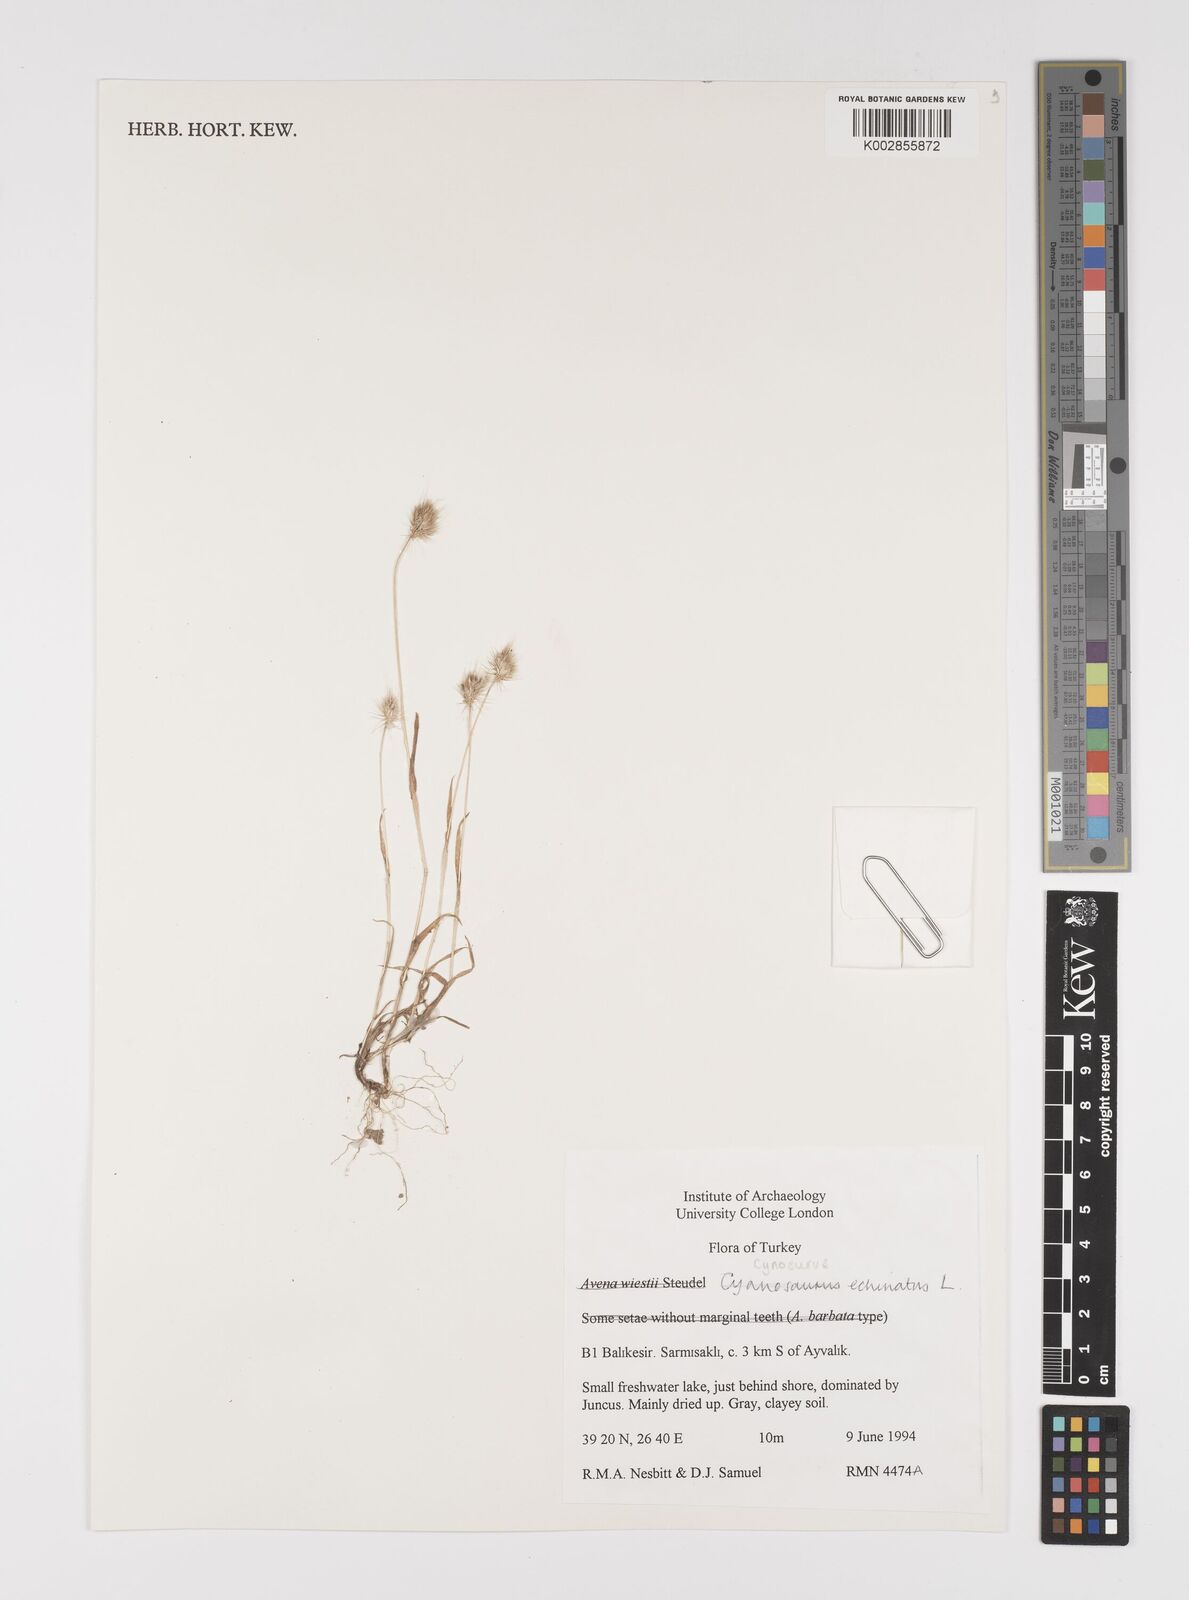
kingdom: Plantae
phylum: Tracheophyta
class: Liliopsida
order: Poales
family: Poaceae
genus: Cynosurus
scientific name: Cynosurus echinatus
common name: Rough dog's-tail
